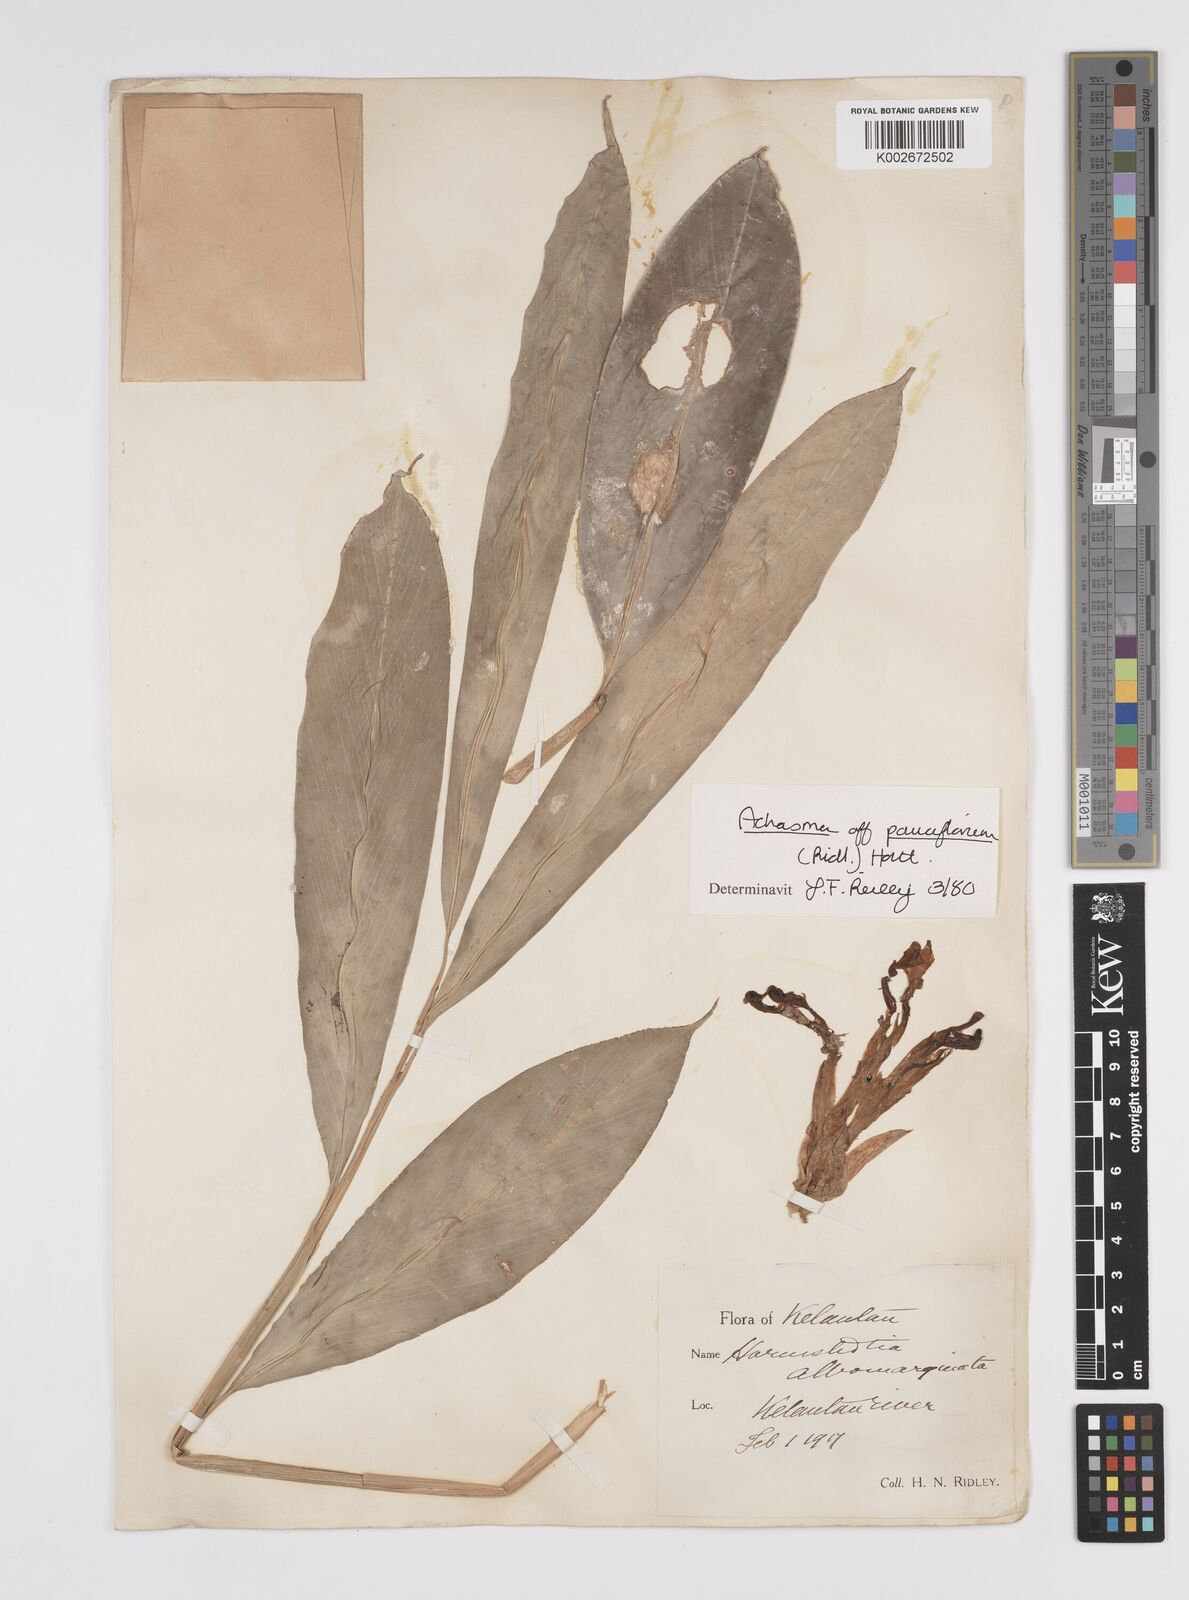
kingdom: Plantae
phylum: Tracheophyta
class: Liliopsida
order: Zingiberales
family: Zingiberaceae
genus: Etlingera
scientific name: Etlingera pauciflora
